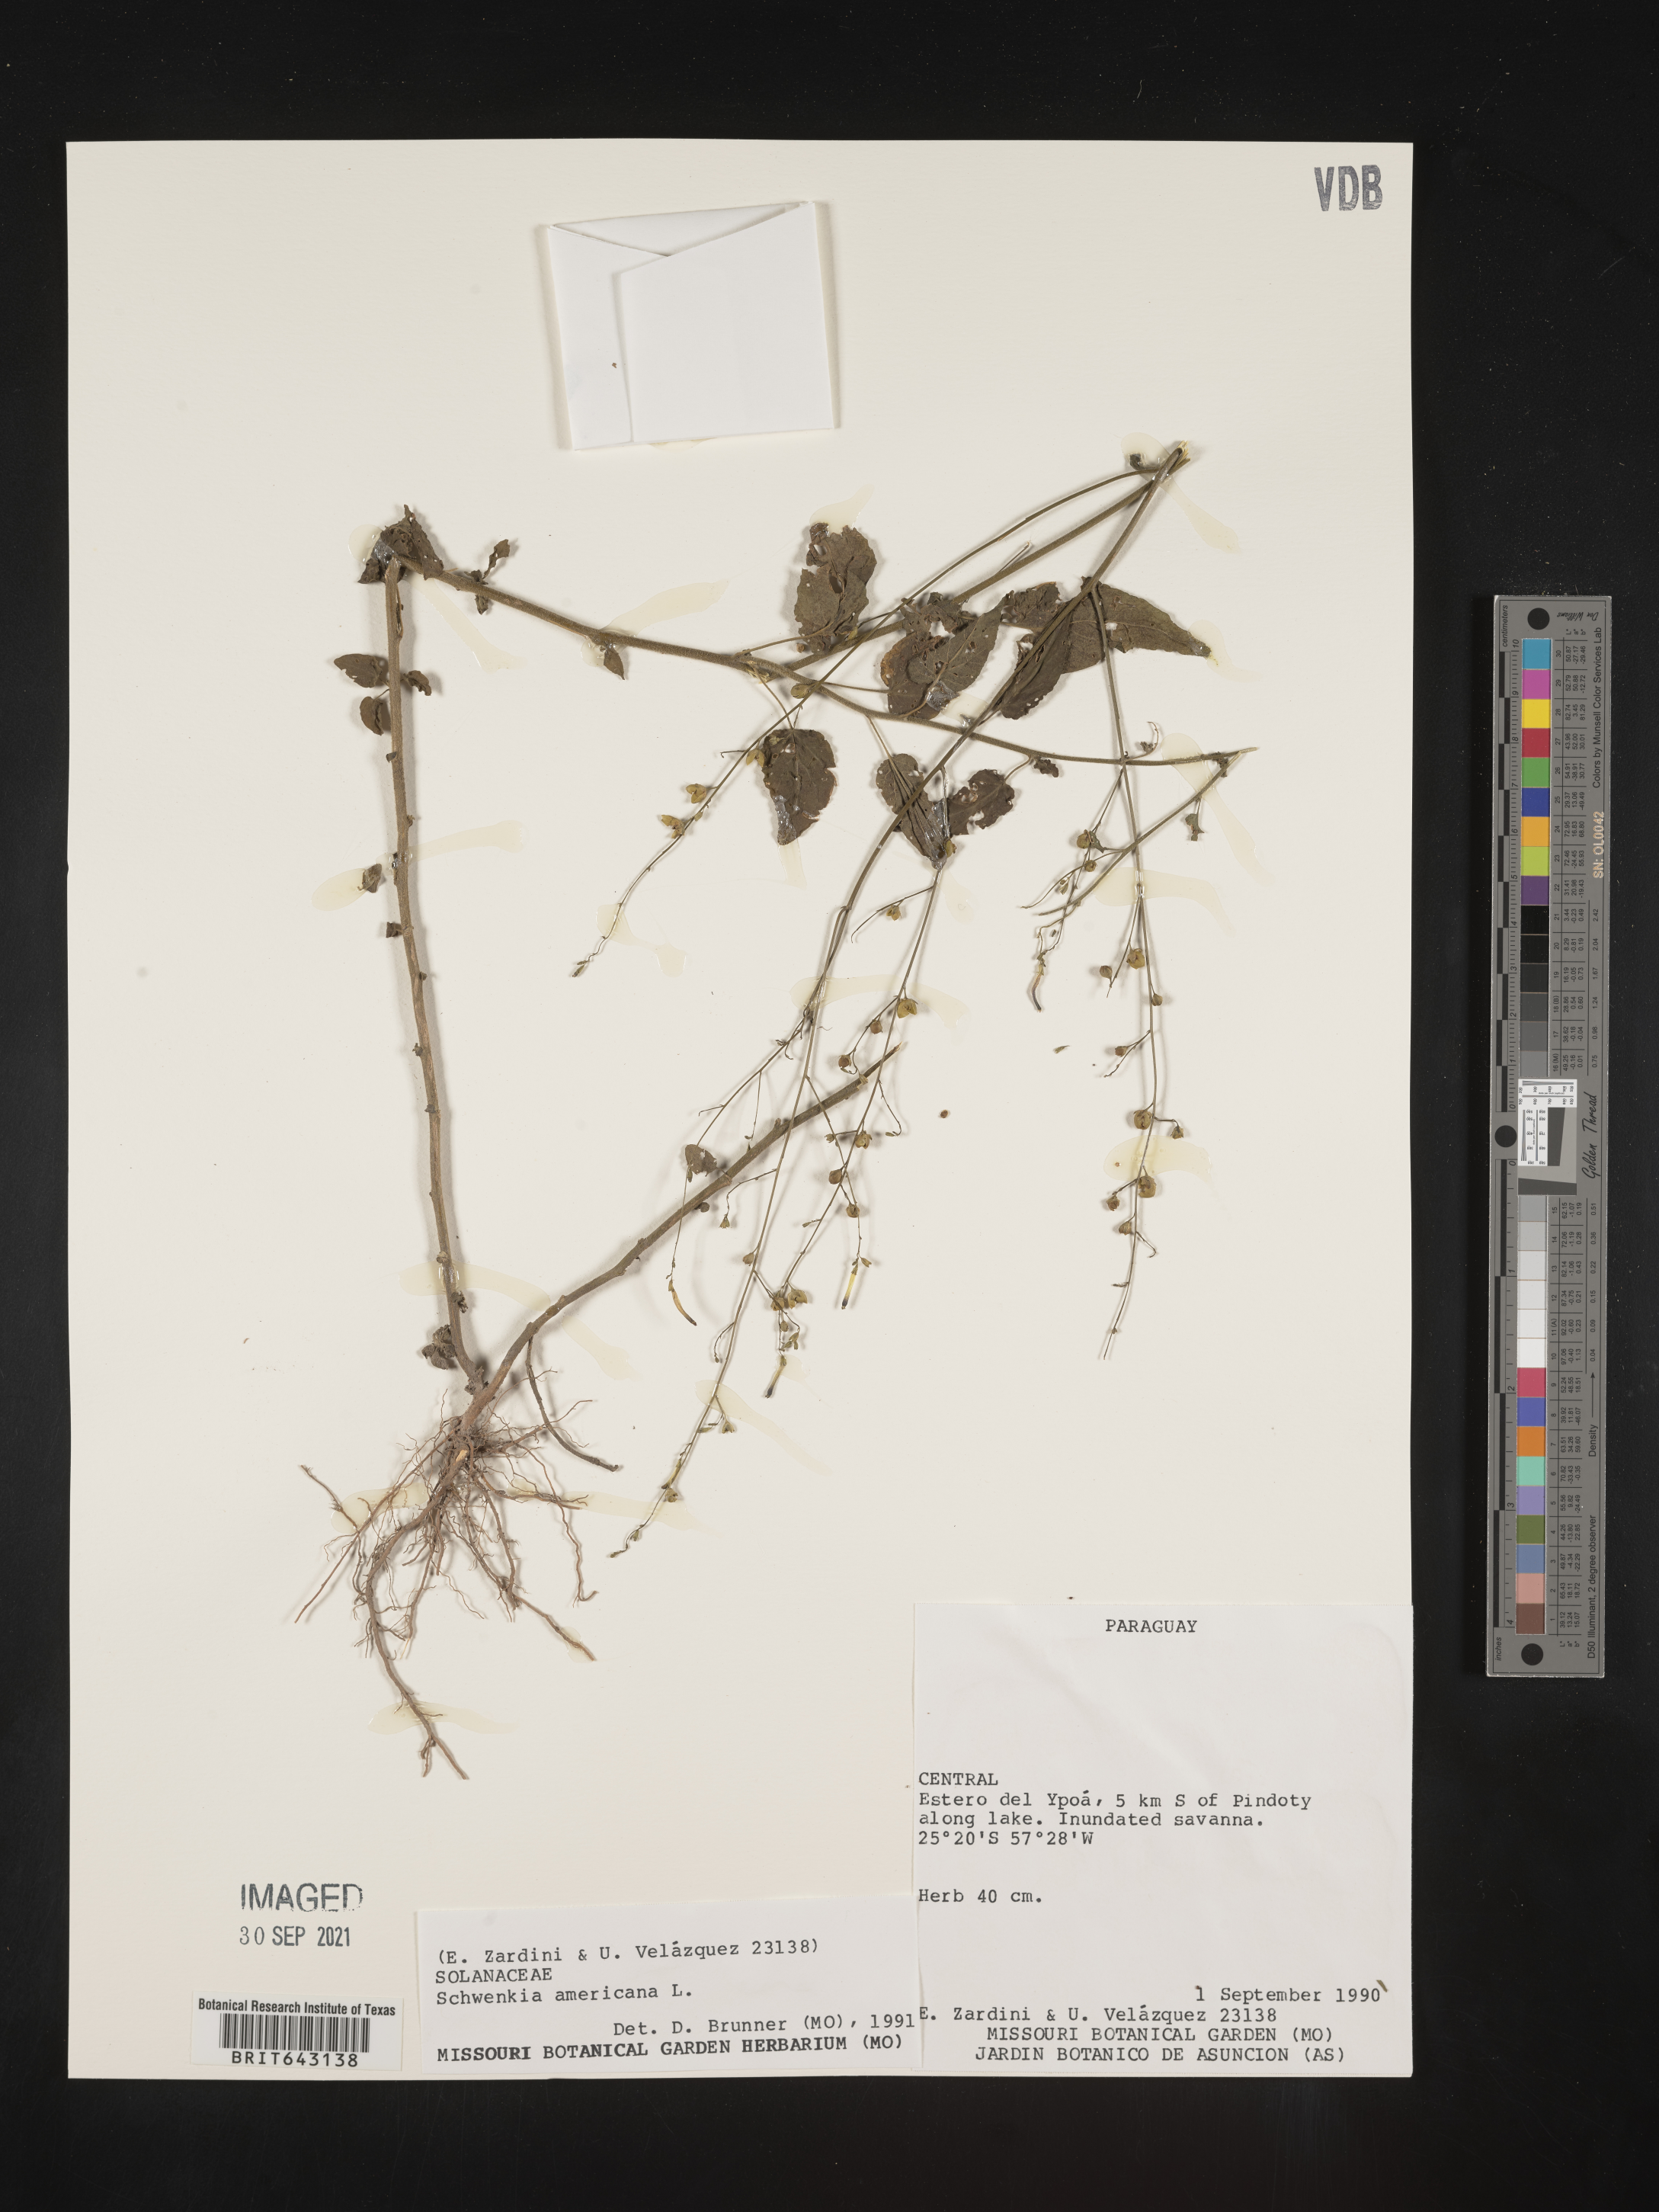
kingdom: Plantae
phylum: Tracheophyta
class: Magnoliopsida
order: Solanales
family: Solanaceae
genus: Schwenckia
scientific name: Schwenckia
